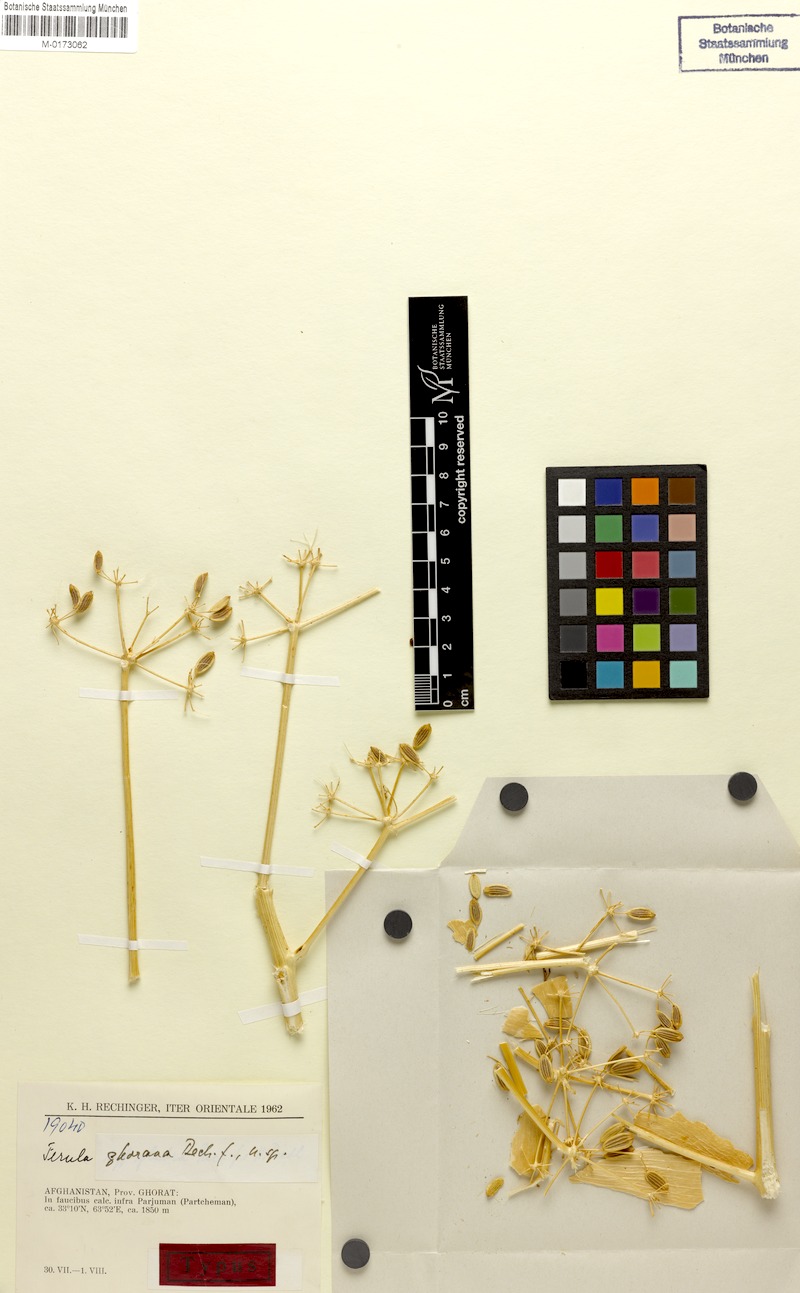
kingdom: Plantae
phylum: Tracheophyta
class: Magnoliopsida
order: Apiales
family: Apiaceae
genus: Ferula
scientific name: Ferula ghorana
